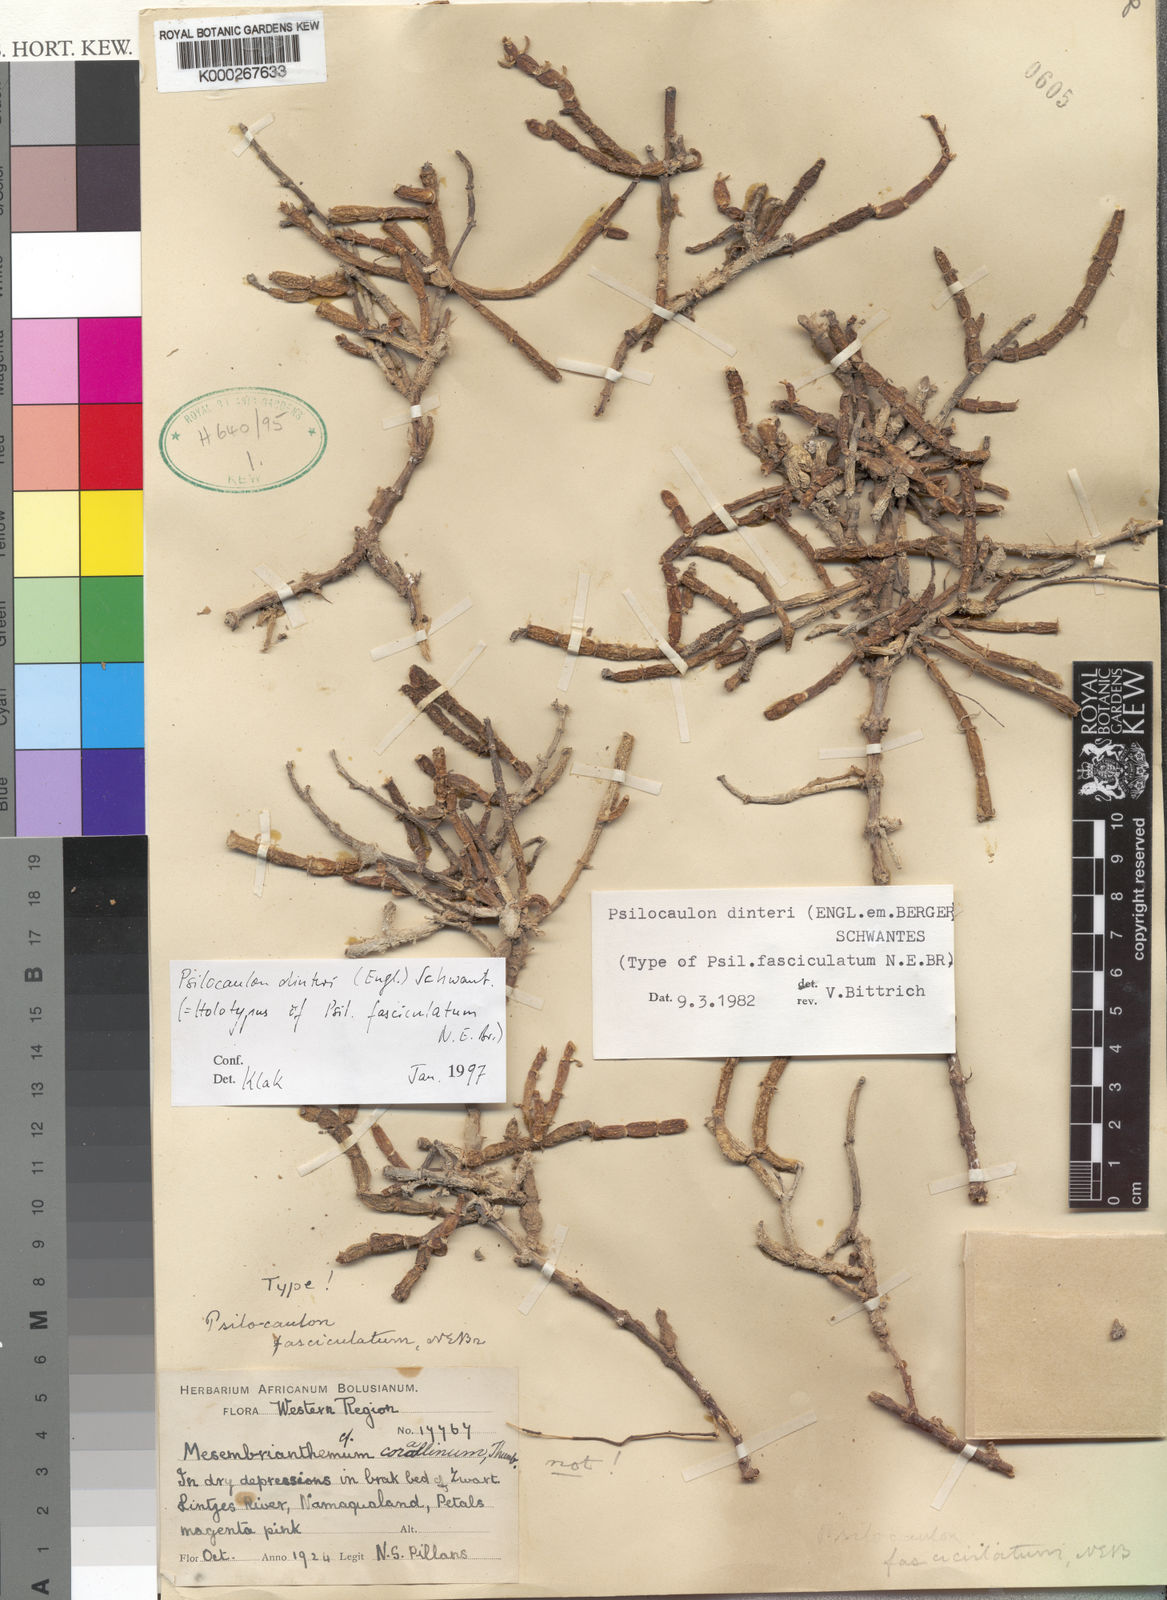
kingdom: Plantae
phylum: Tracheophyta
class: Magnoliopsida
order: Caryophyllales
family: Aizoaceae
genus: Mesembryanthemum
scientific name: Mesembryanthemum dinteri
